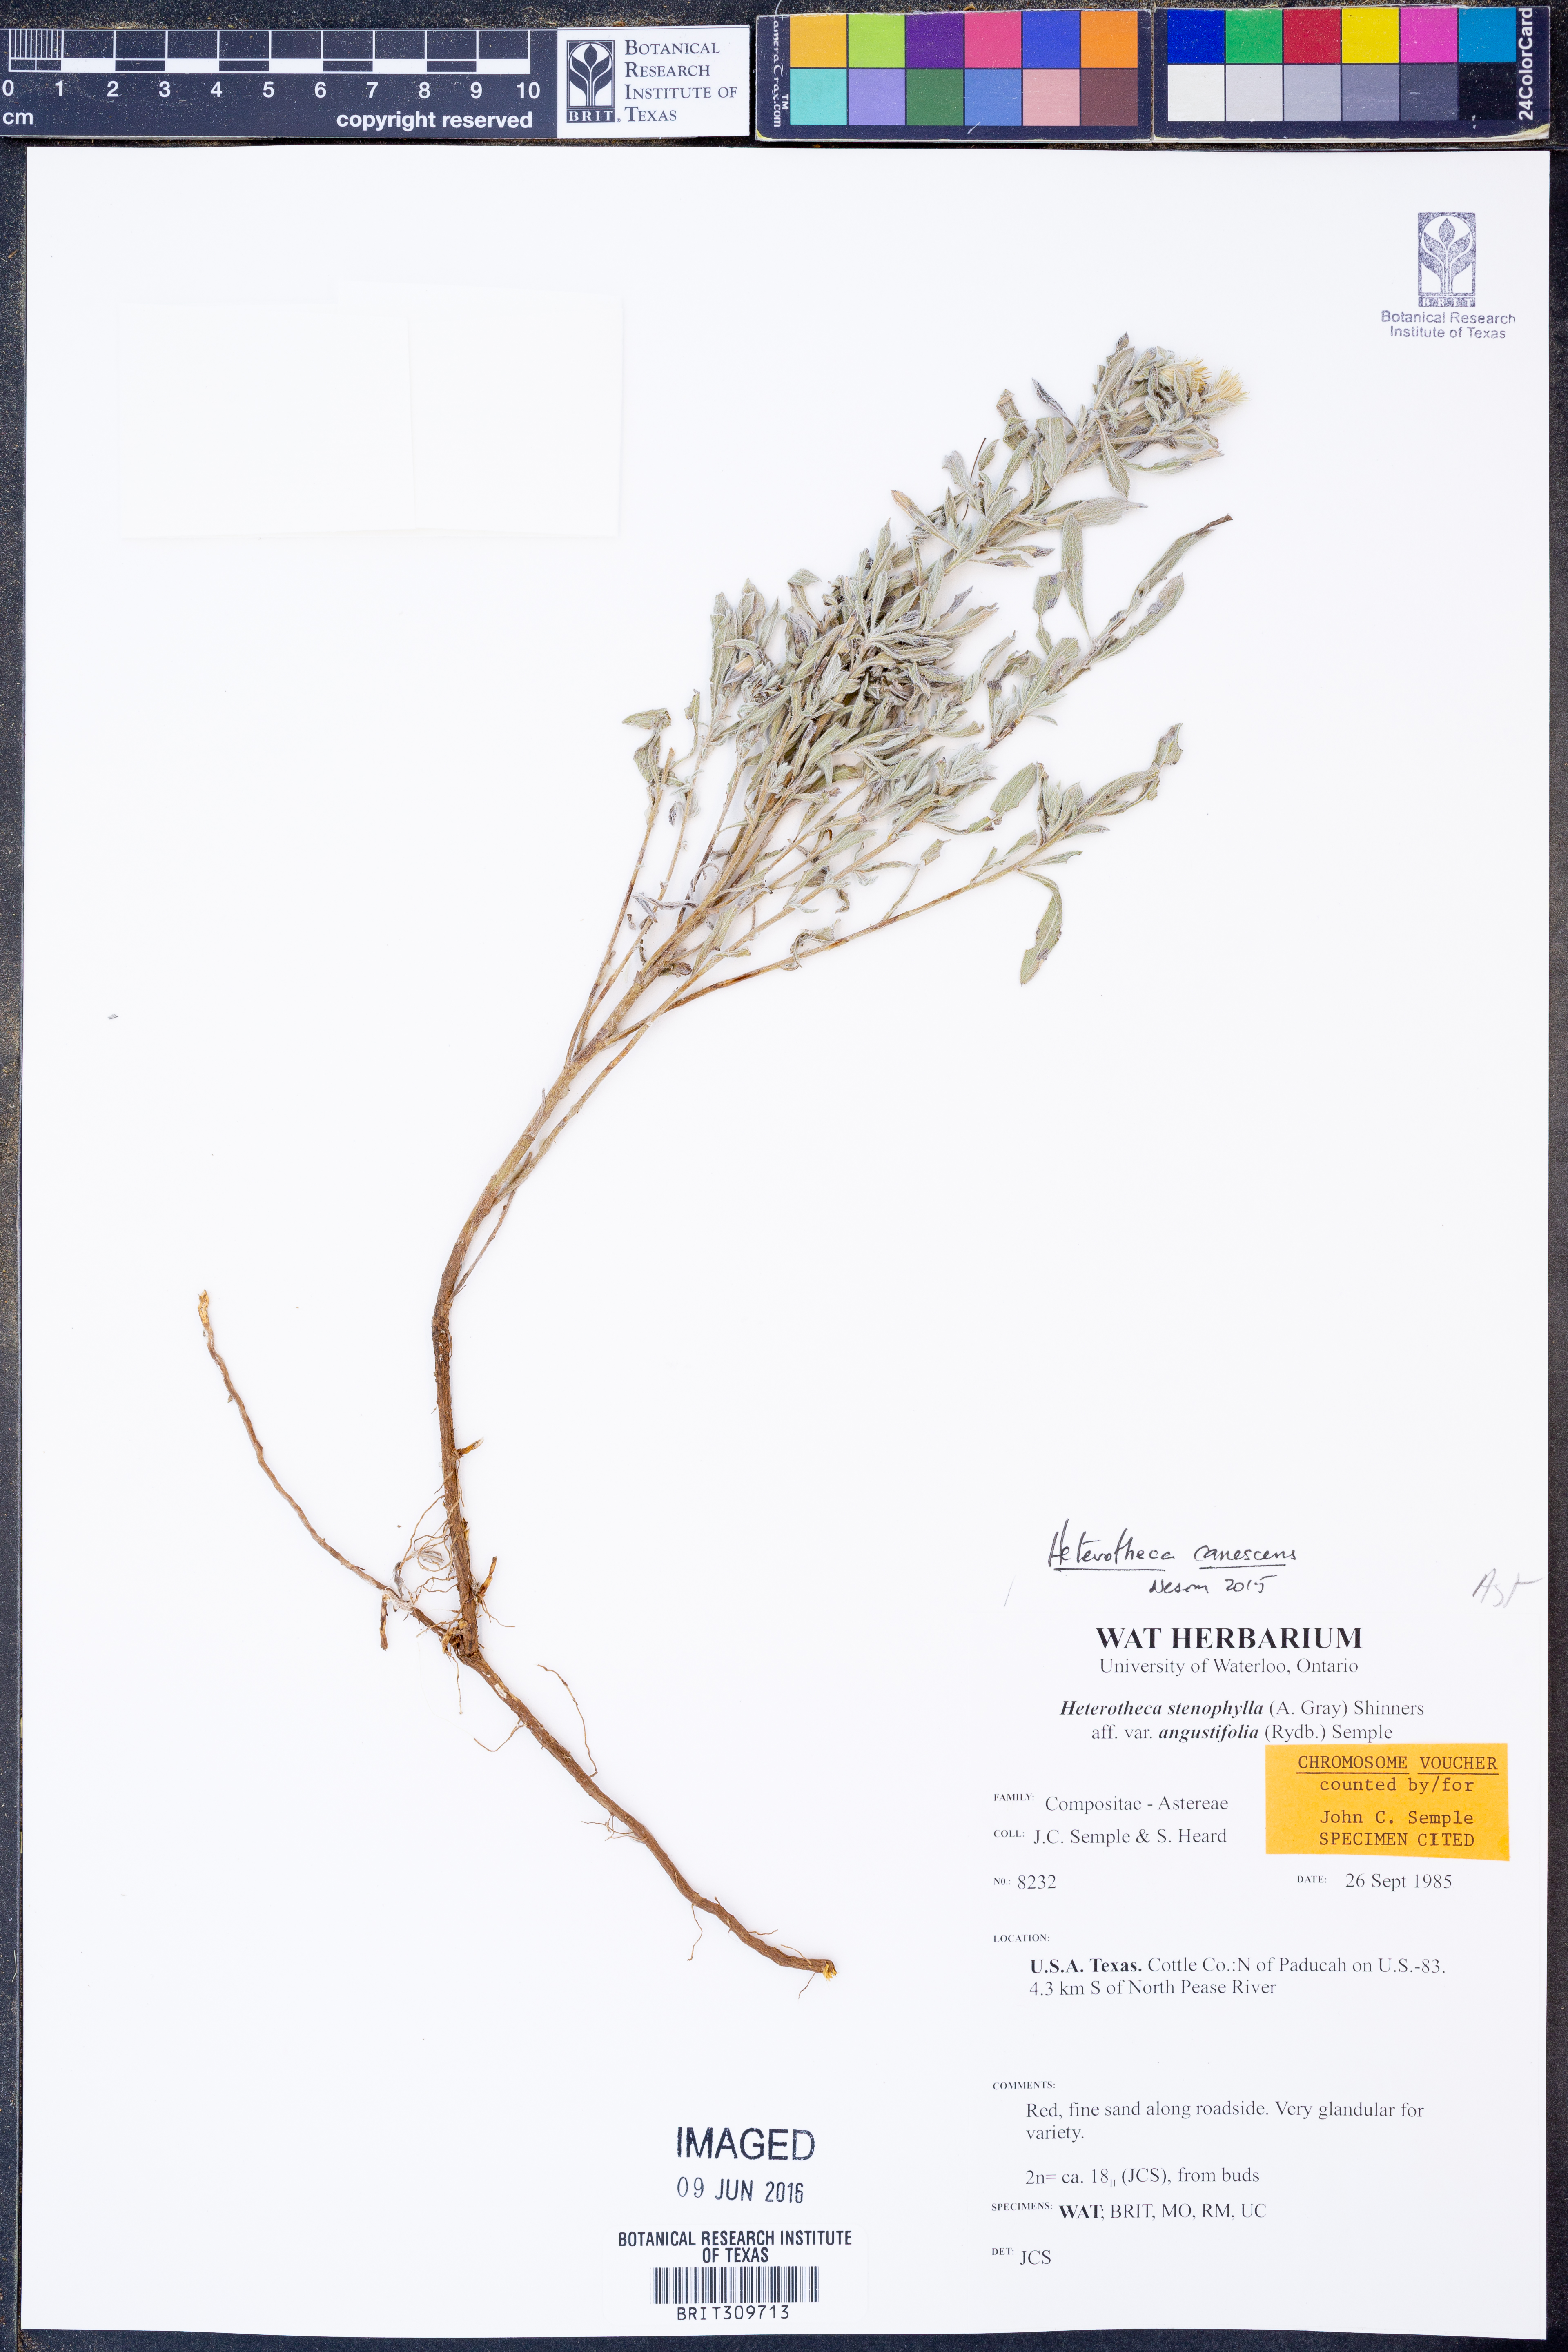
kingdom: Plantae
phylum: Tracheophyta
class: Magnoliopsida
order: Asterales
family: Asteraceae
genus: Heterotheca
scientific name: Heterotheca canescens
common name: Hoary golden-aster
